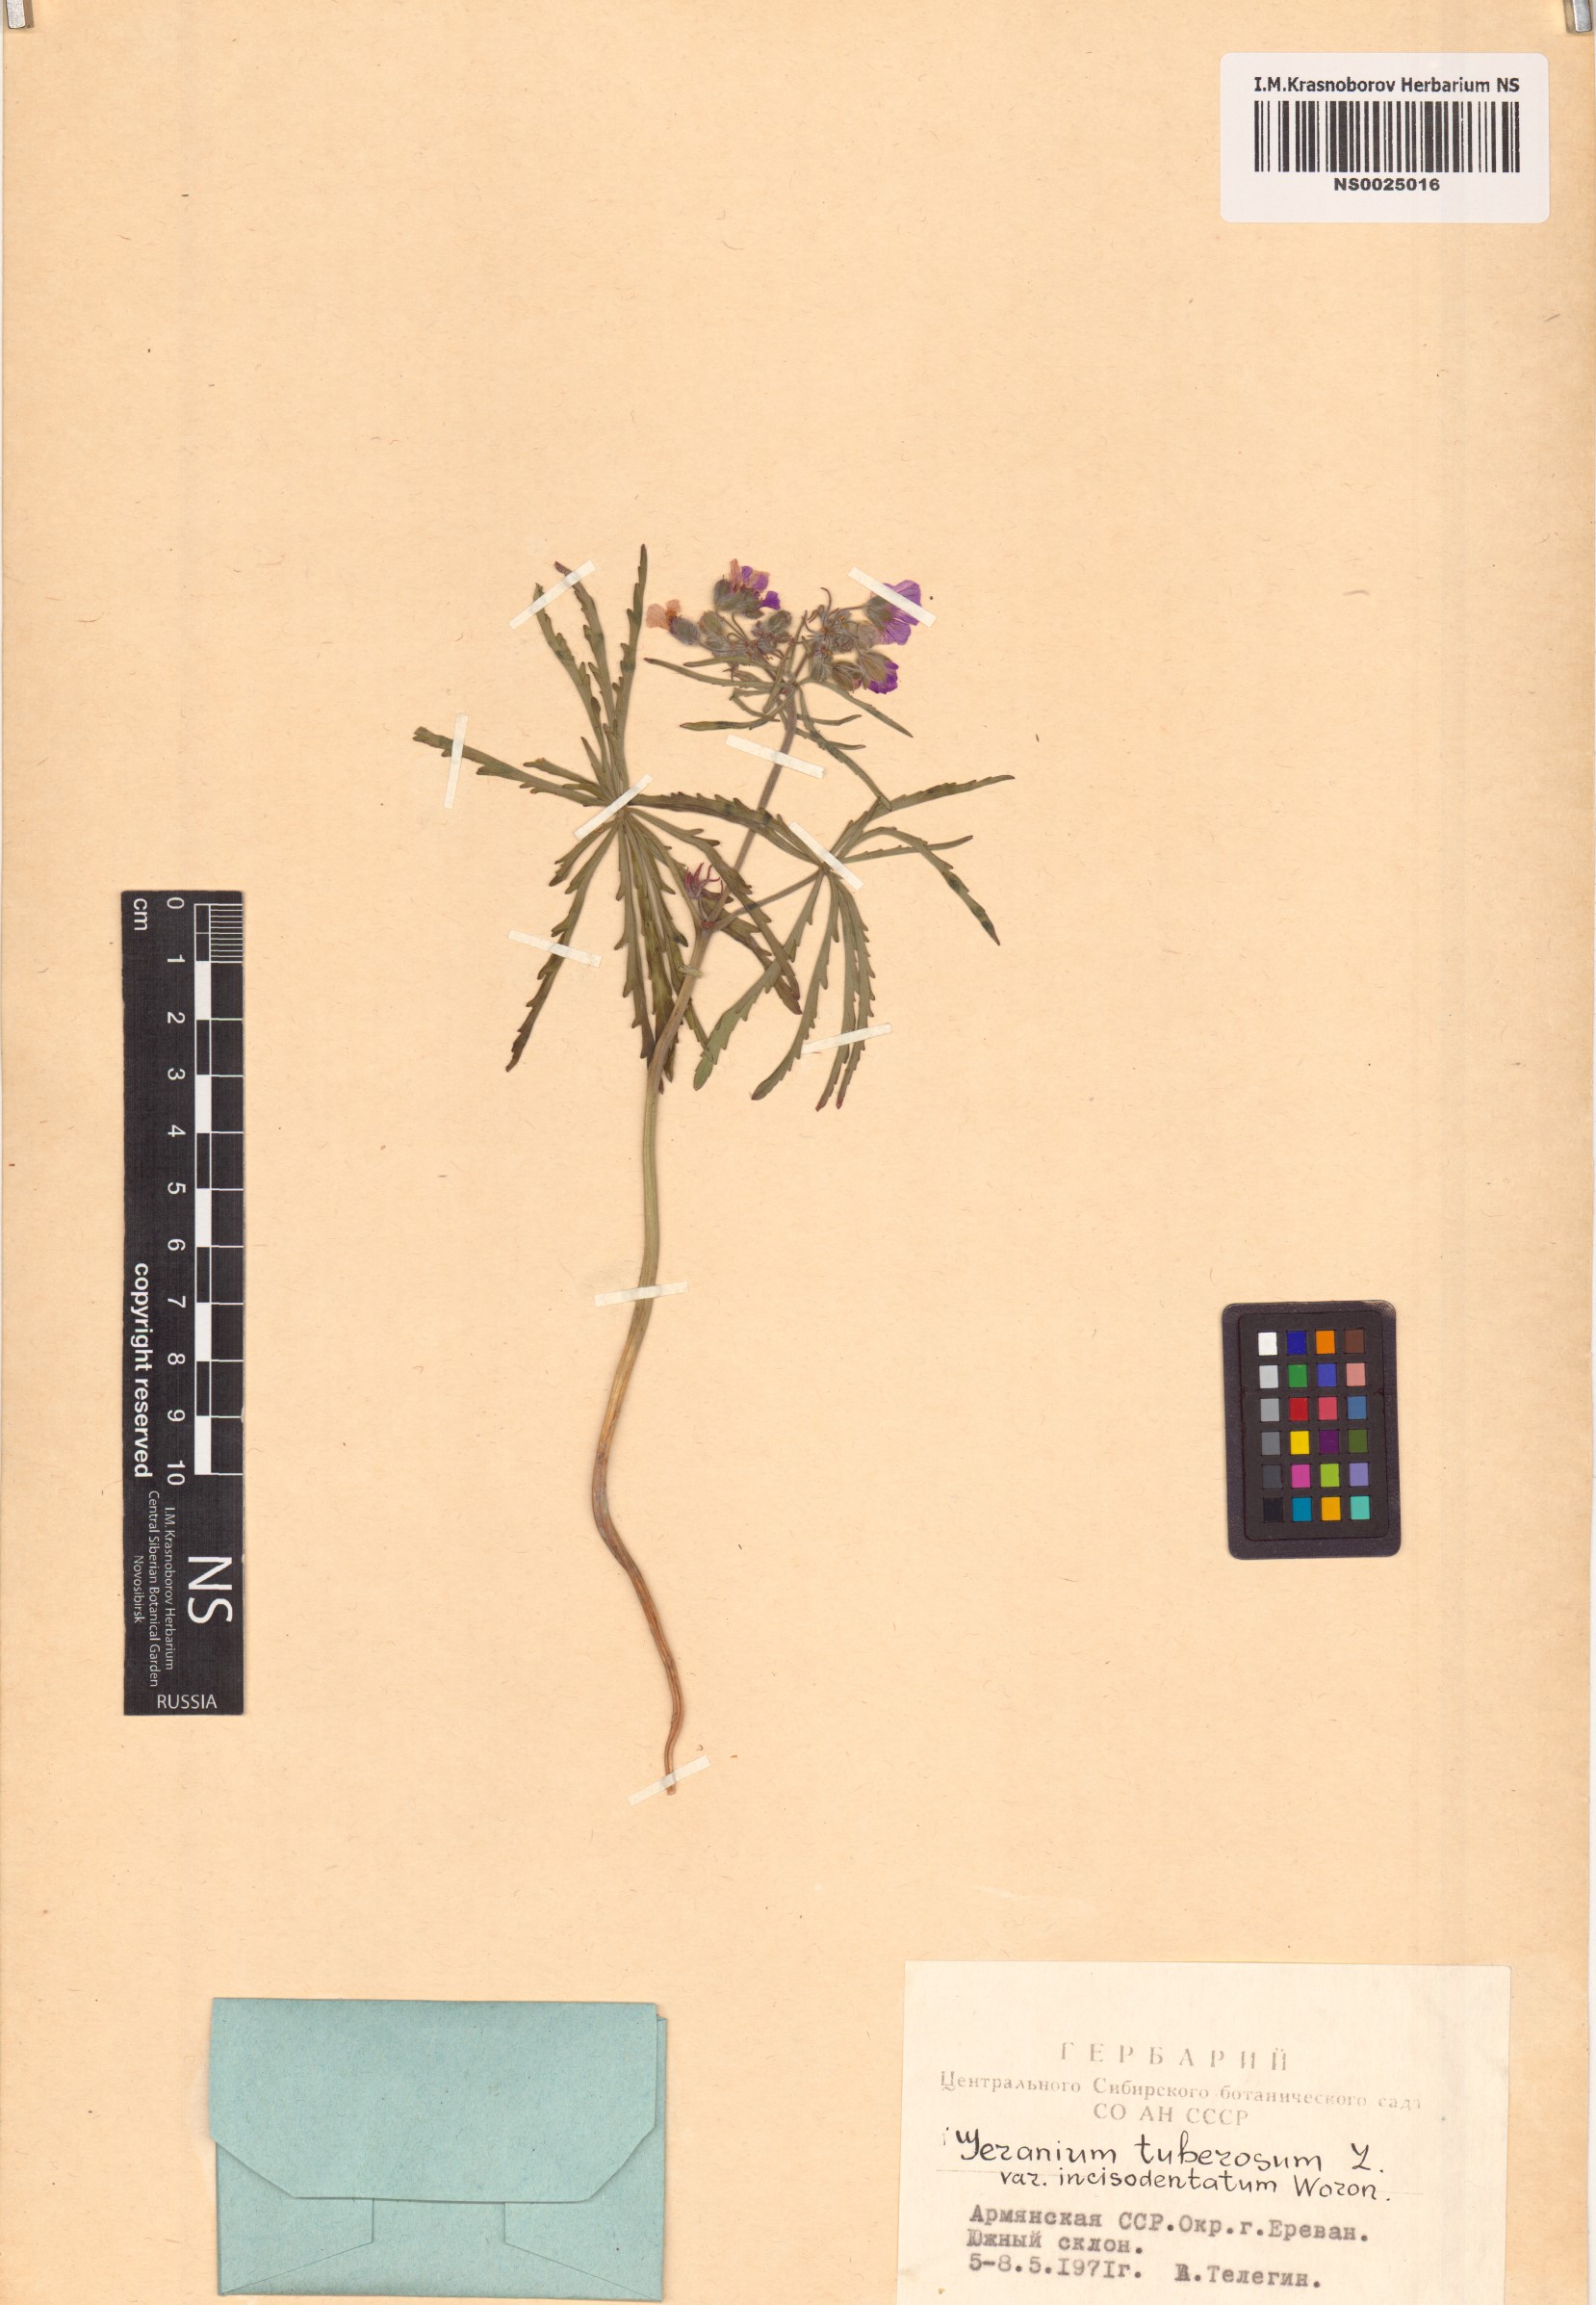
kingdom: Plantae
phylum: Tracheophyta
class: Magnoliopsida
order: Geraniales
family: Geraniaceae
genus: Geranium
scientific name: Geranium tuberosum
